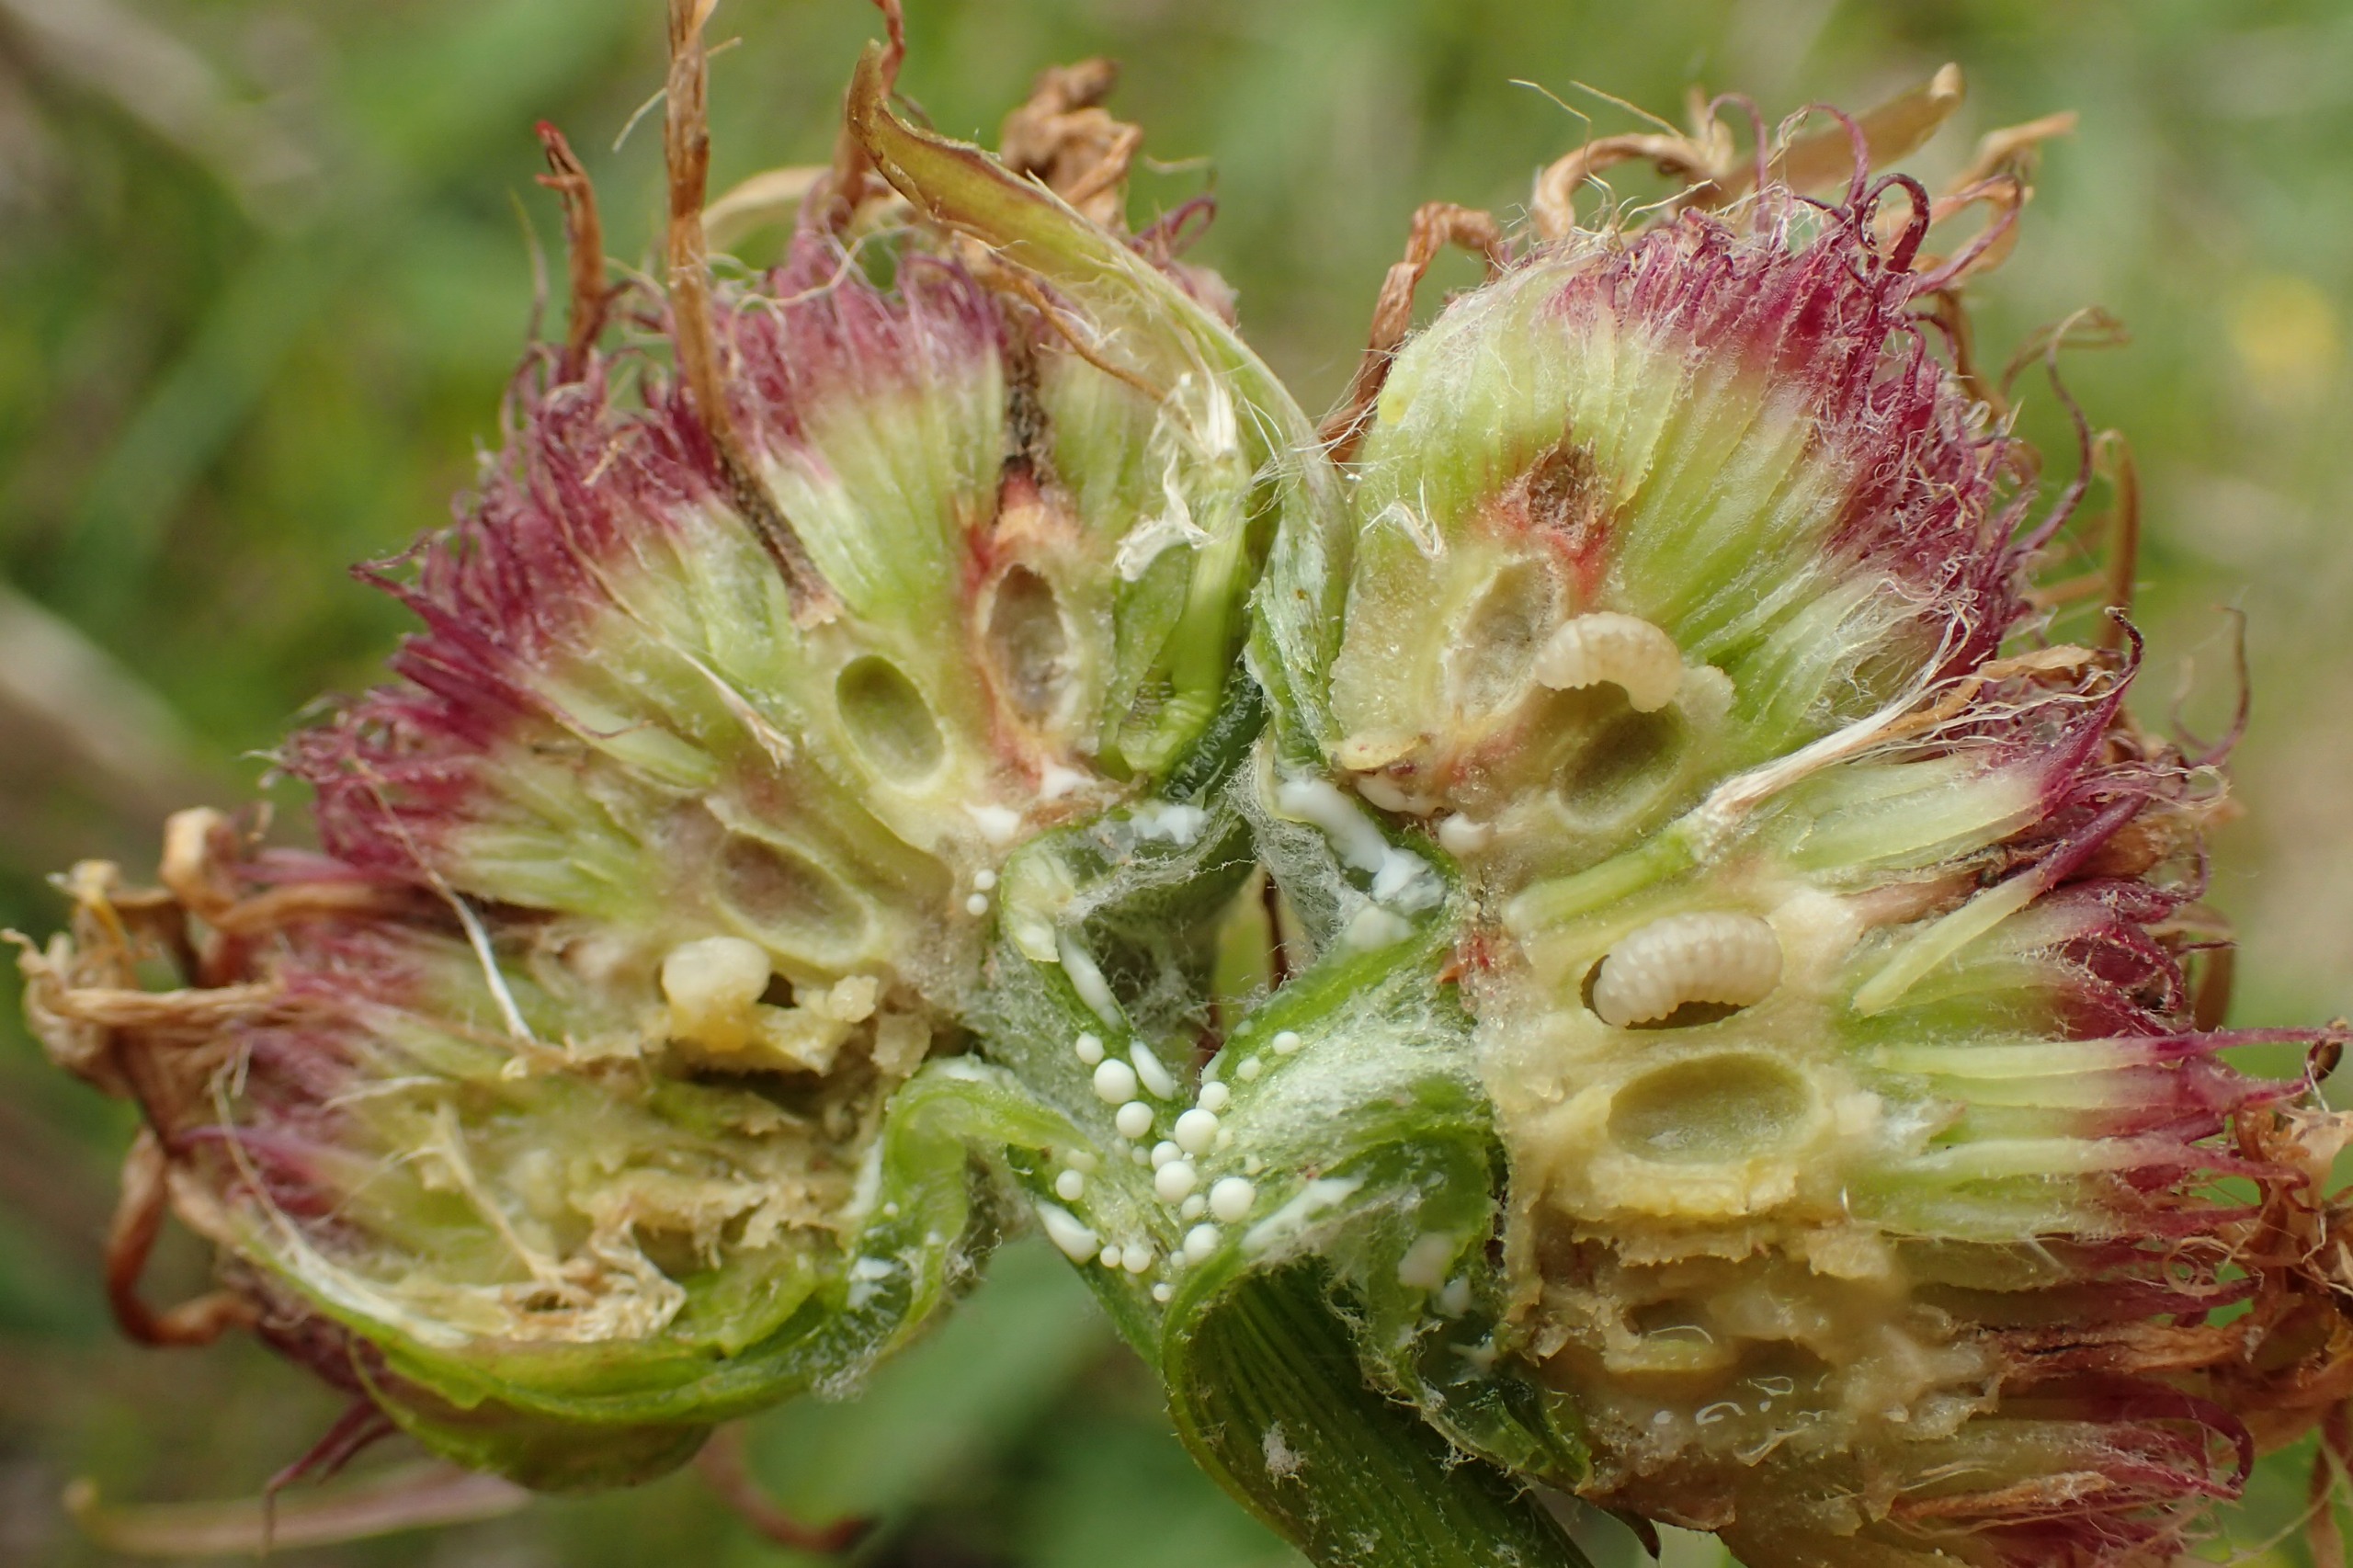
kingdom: Animalia
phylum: Arthropoda
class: Insecta
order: Hymenoptera
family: Cynipidae
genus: Aulacidea
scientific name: Aulacidea abdominalis
